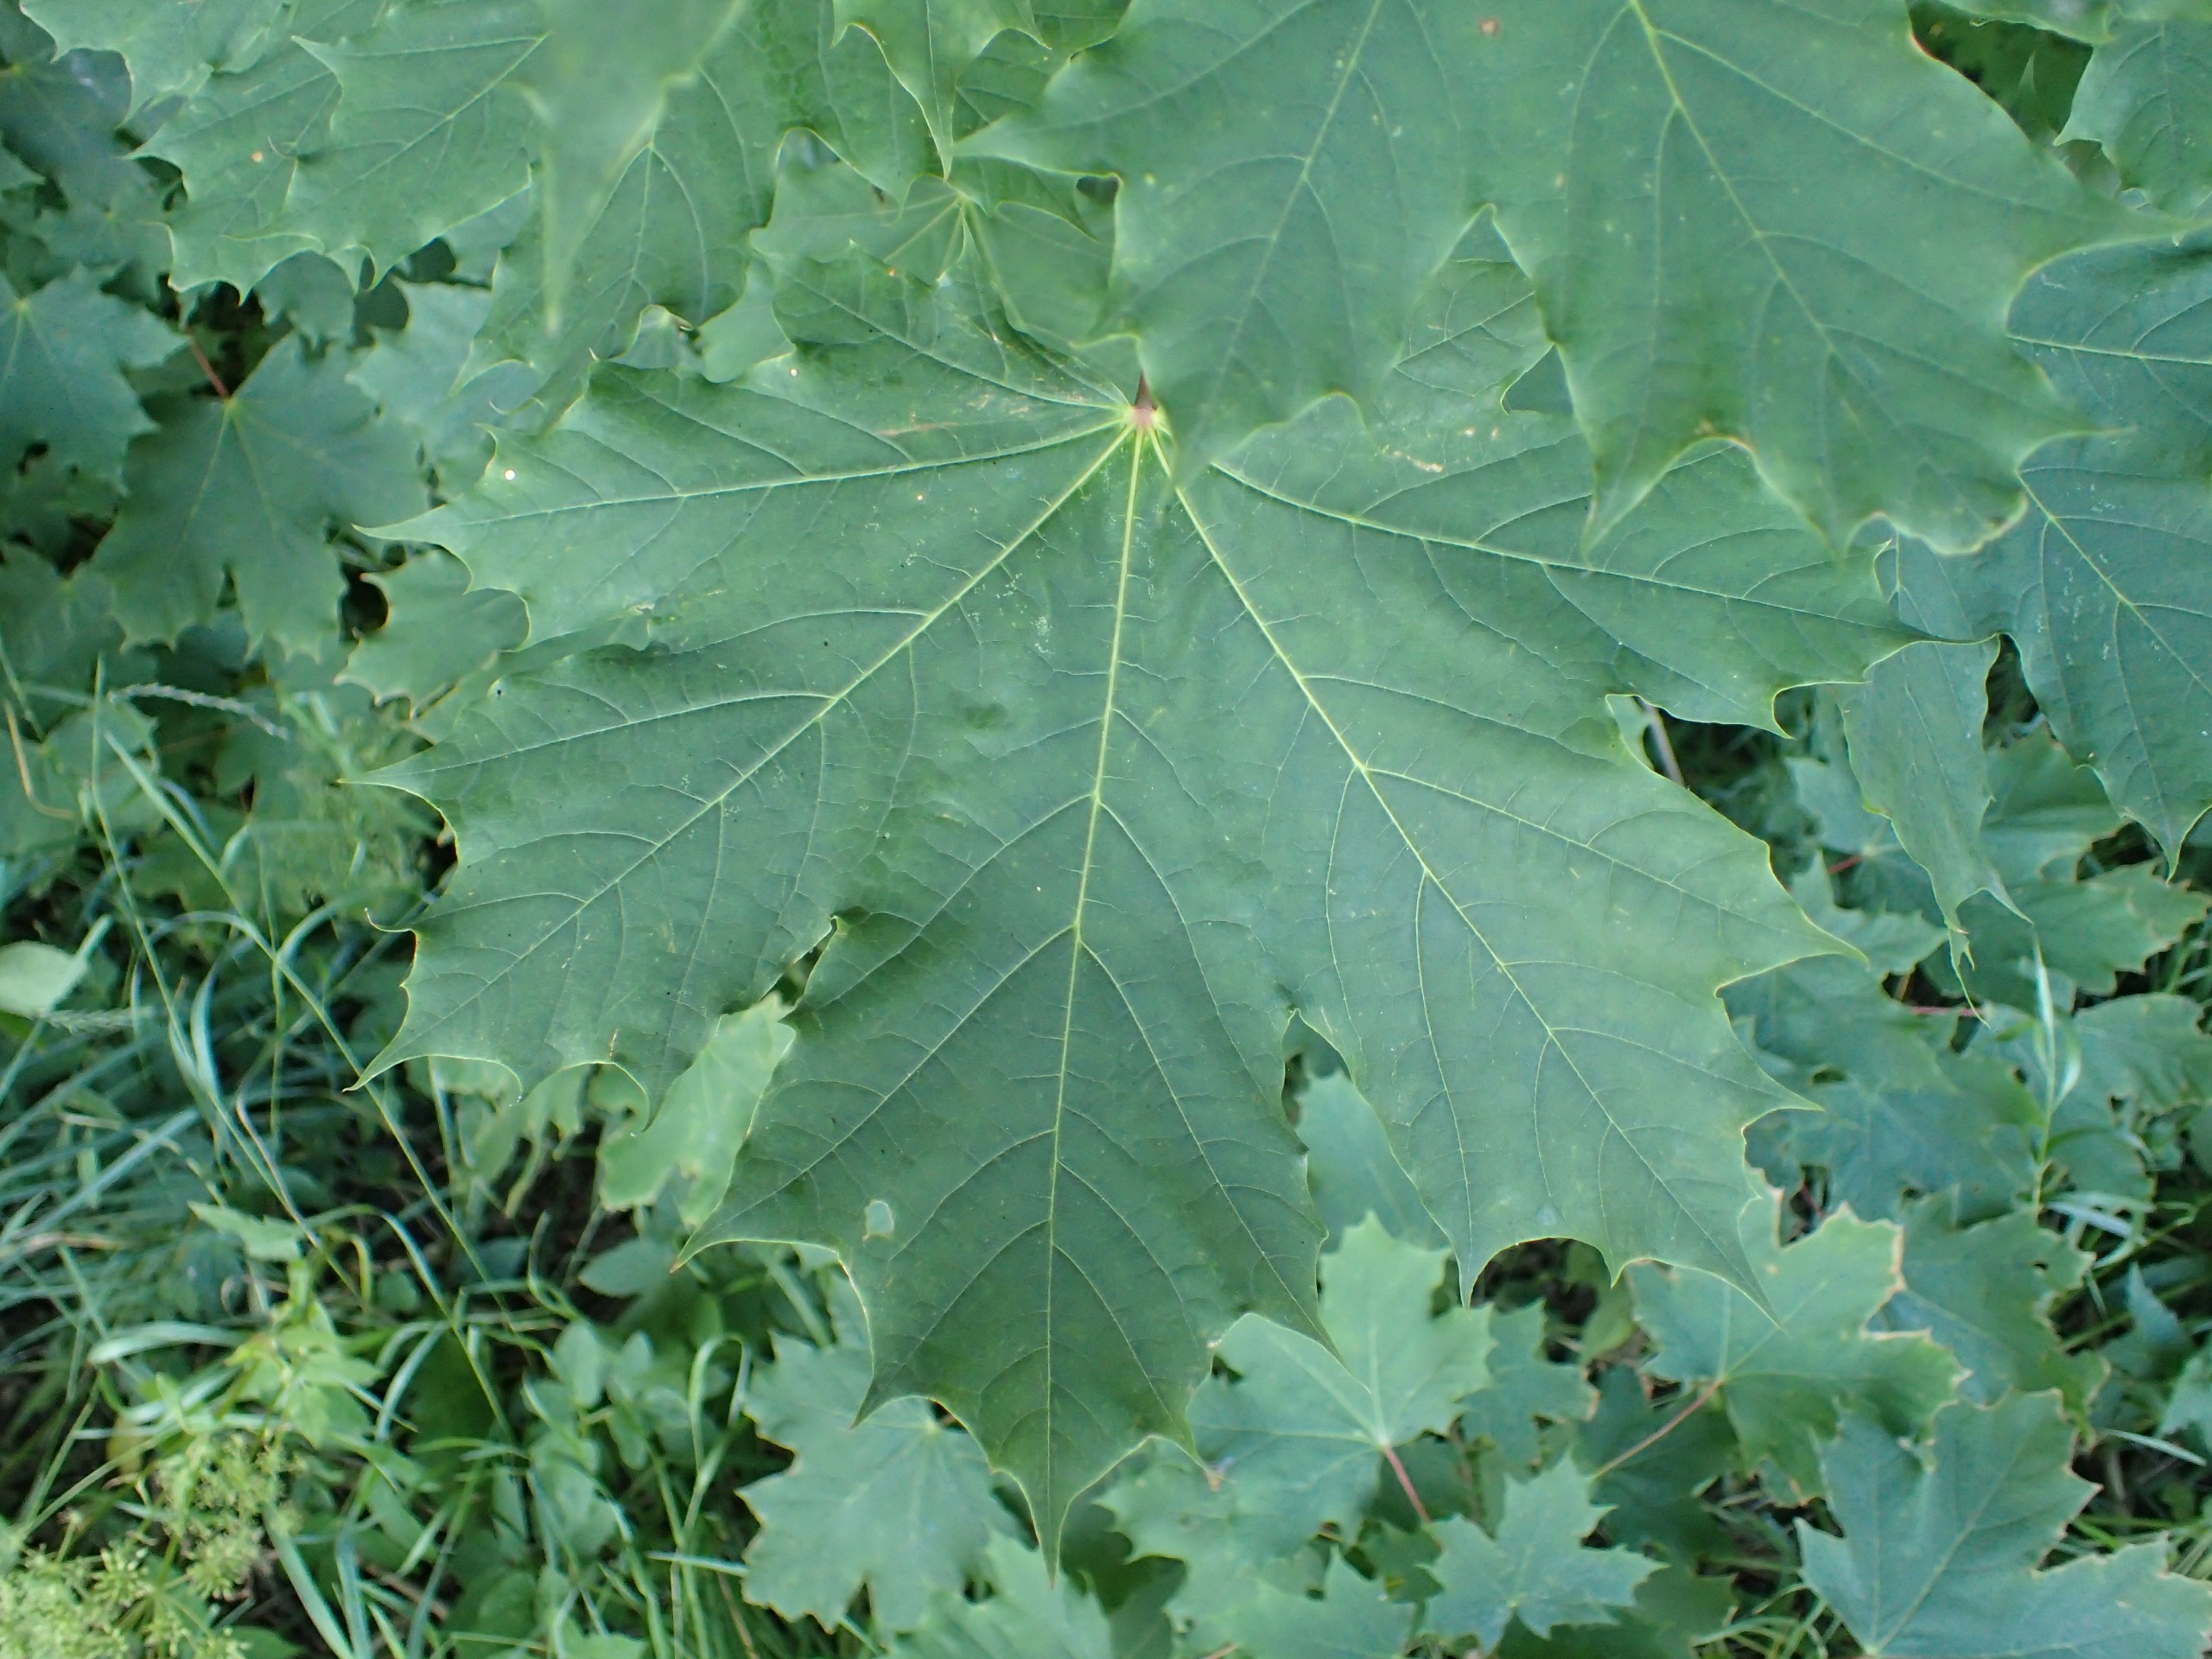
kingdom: Plantae
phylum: Tracheophyta
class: Magnoliopsida
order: Sapindales
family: Sapindaceae
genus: Acer
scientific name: Acer platanoides
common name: Spids-løn
